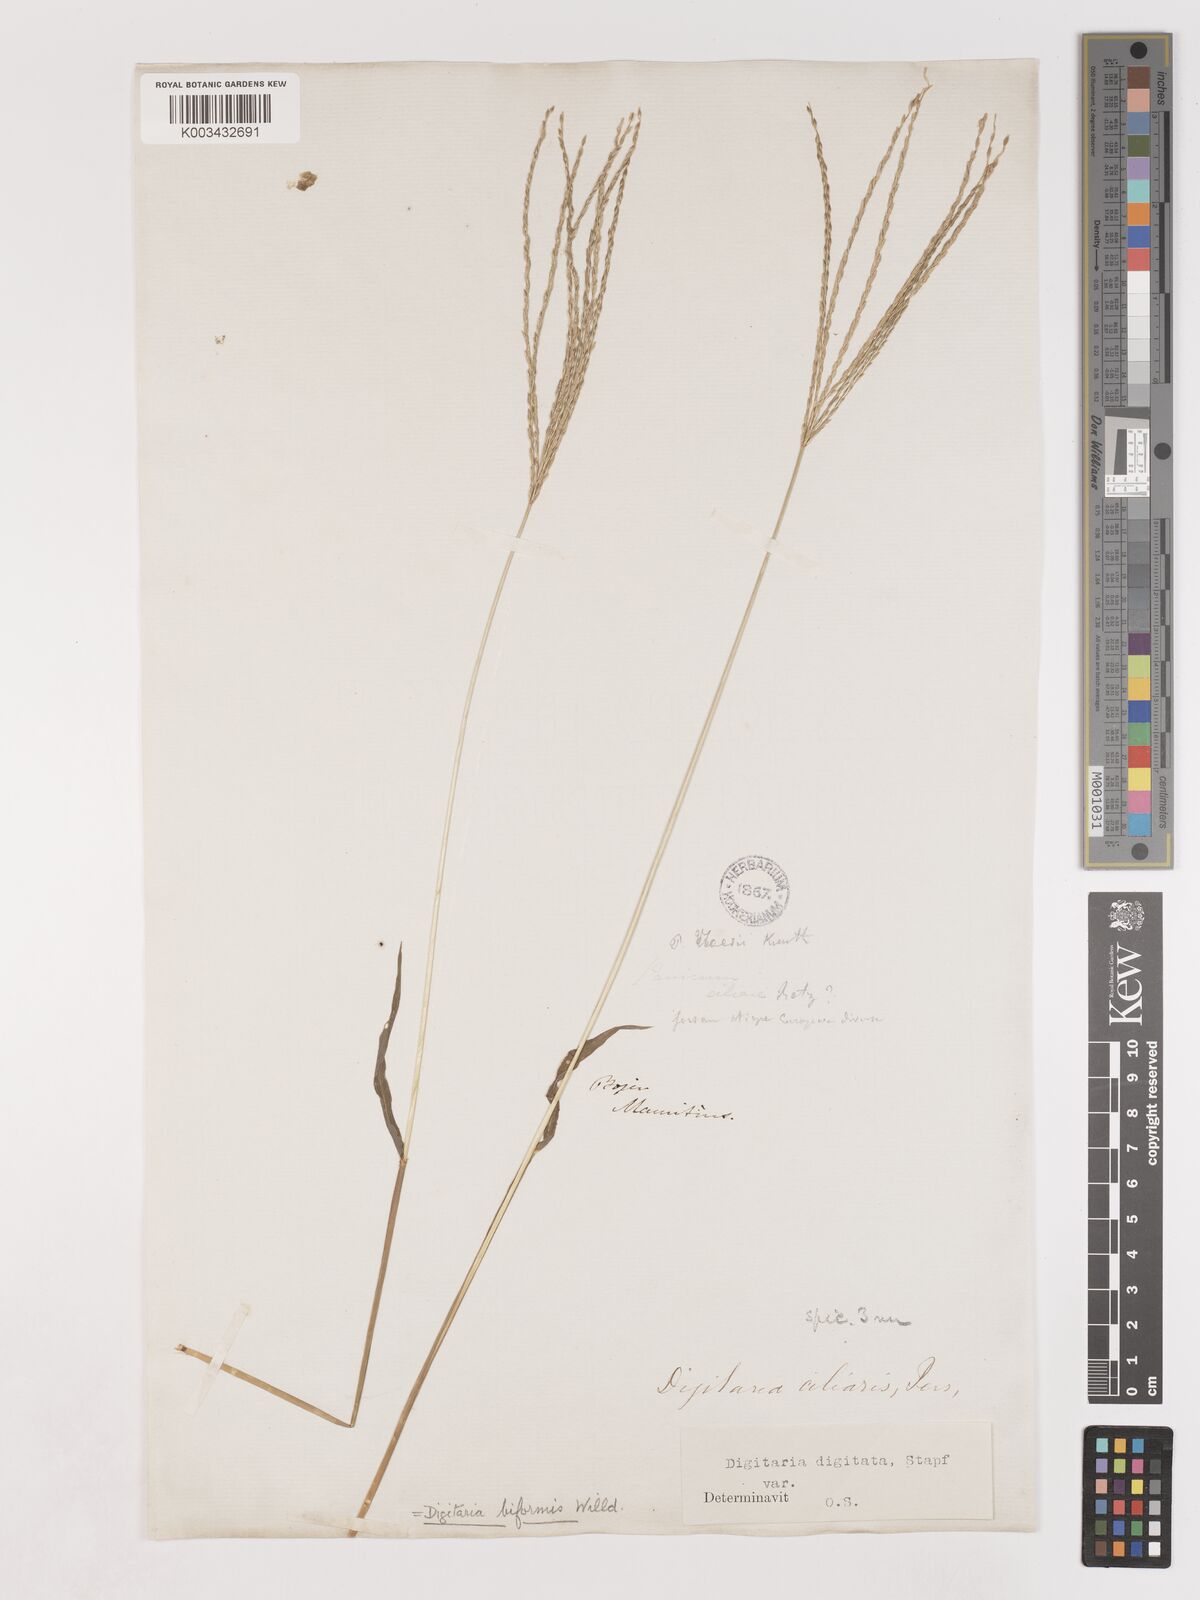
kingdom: Plantae
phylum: Tracheophyta
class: Liliopsida
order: Poales
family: Poaceae
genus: Digitaria
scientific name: Digitaria ciliaris
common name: Tropical finger-grass
